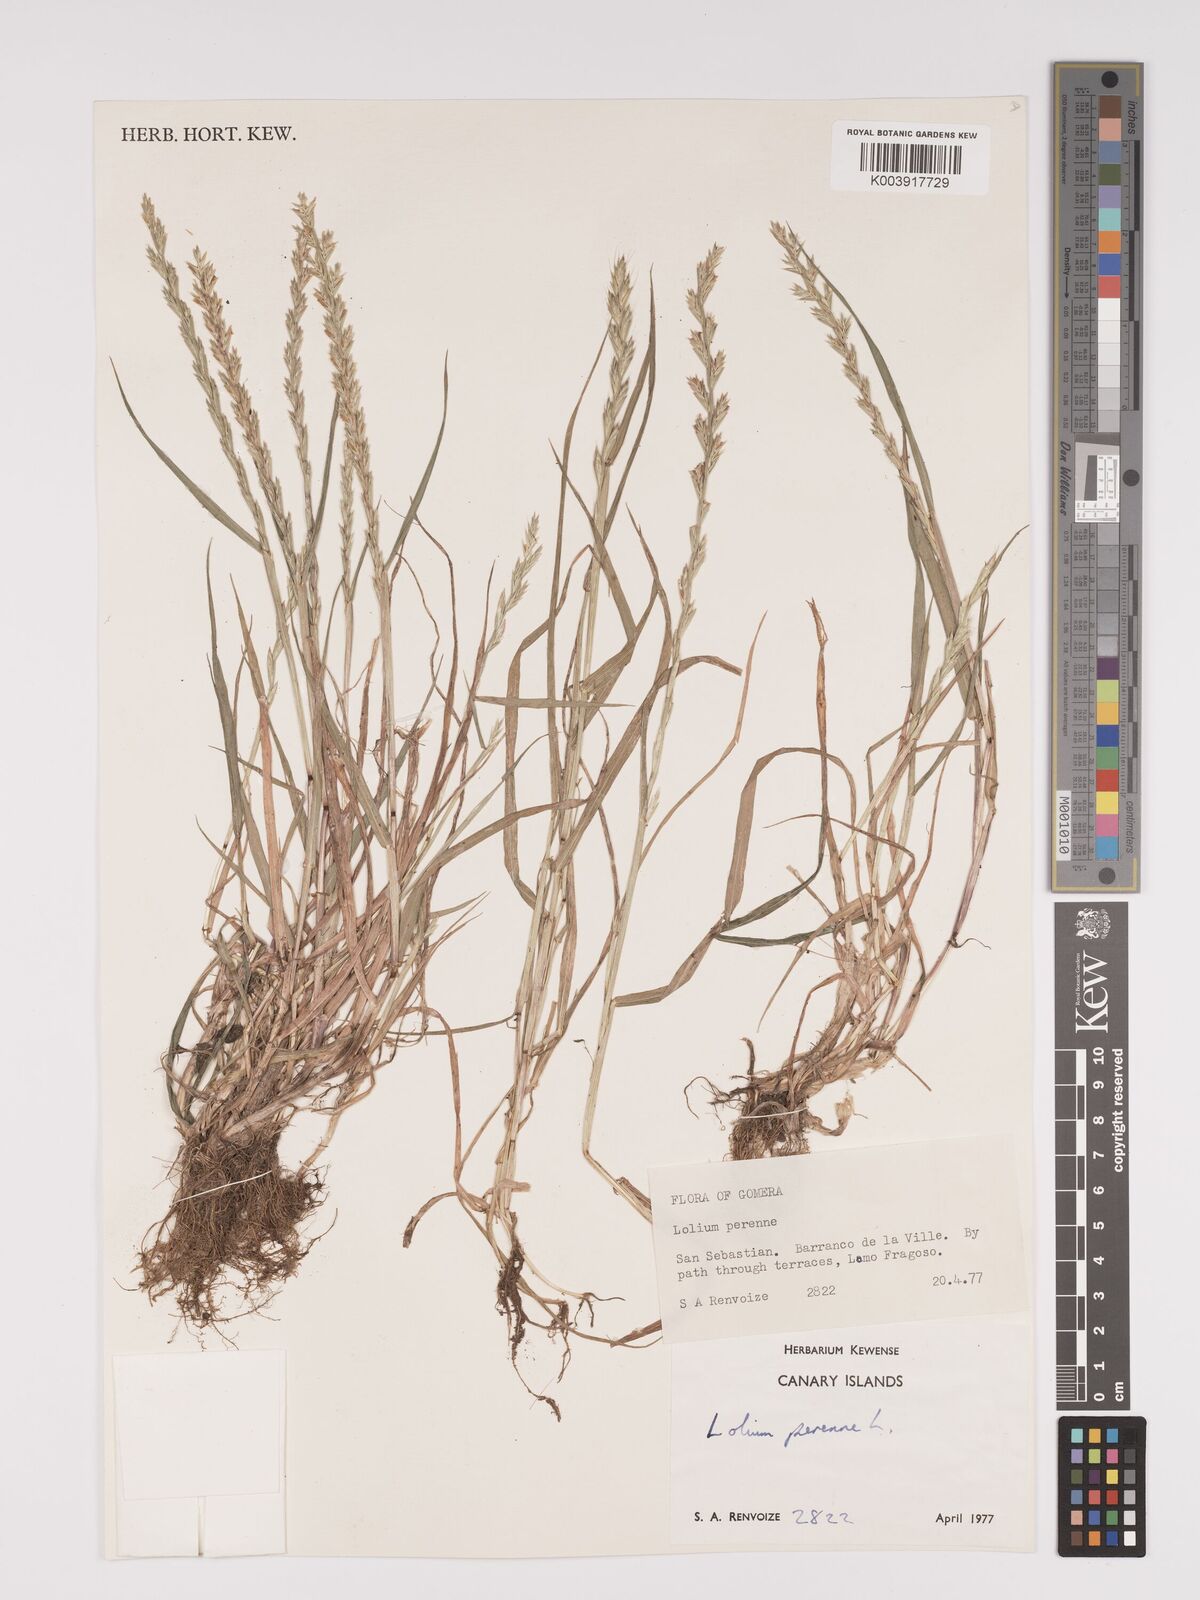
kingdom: Plantae
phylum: Tracheophyta
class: Liliopsida
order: Poales
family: Poaceae
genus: Lolium
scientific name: Lolium perenne
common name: Perennial ryegrass
